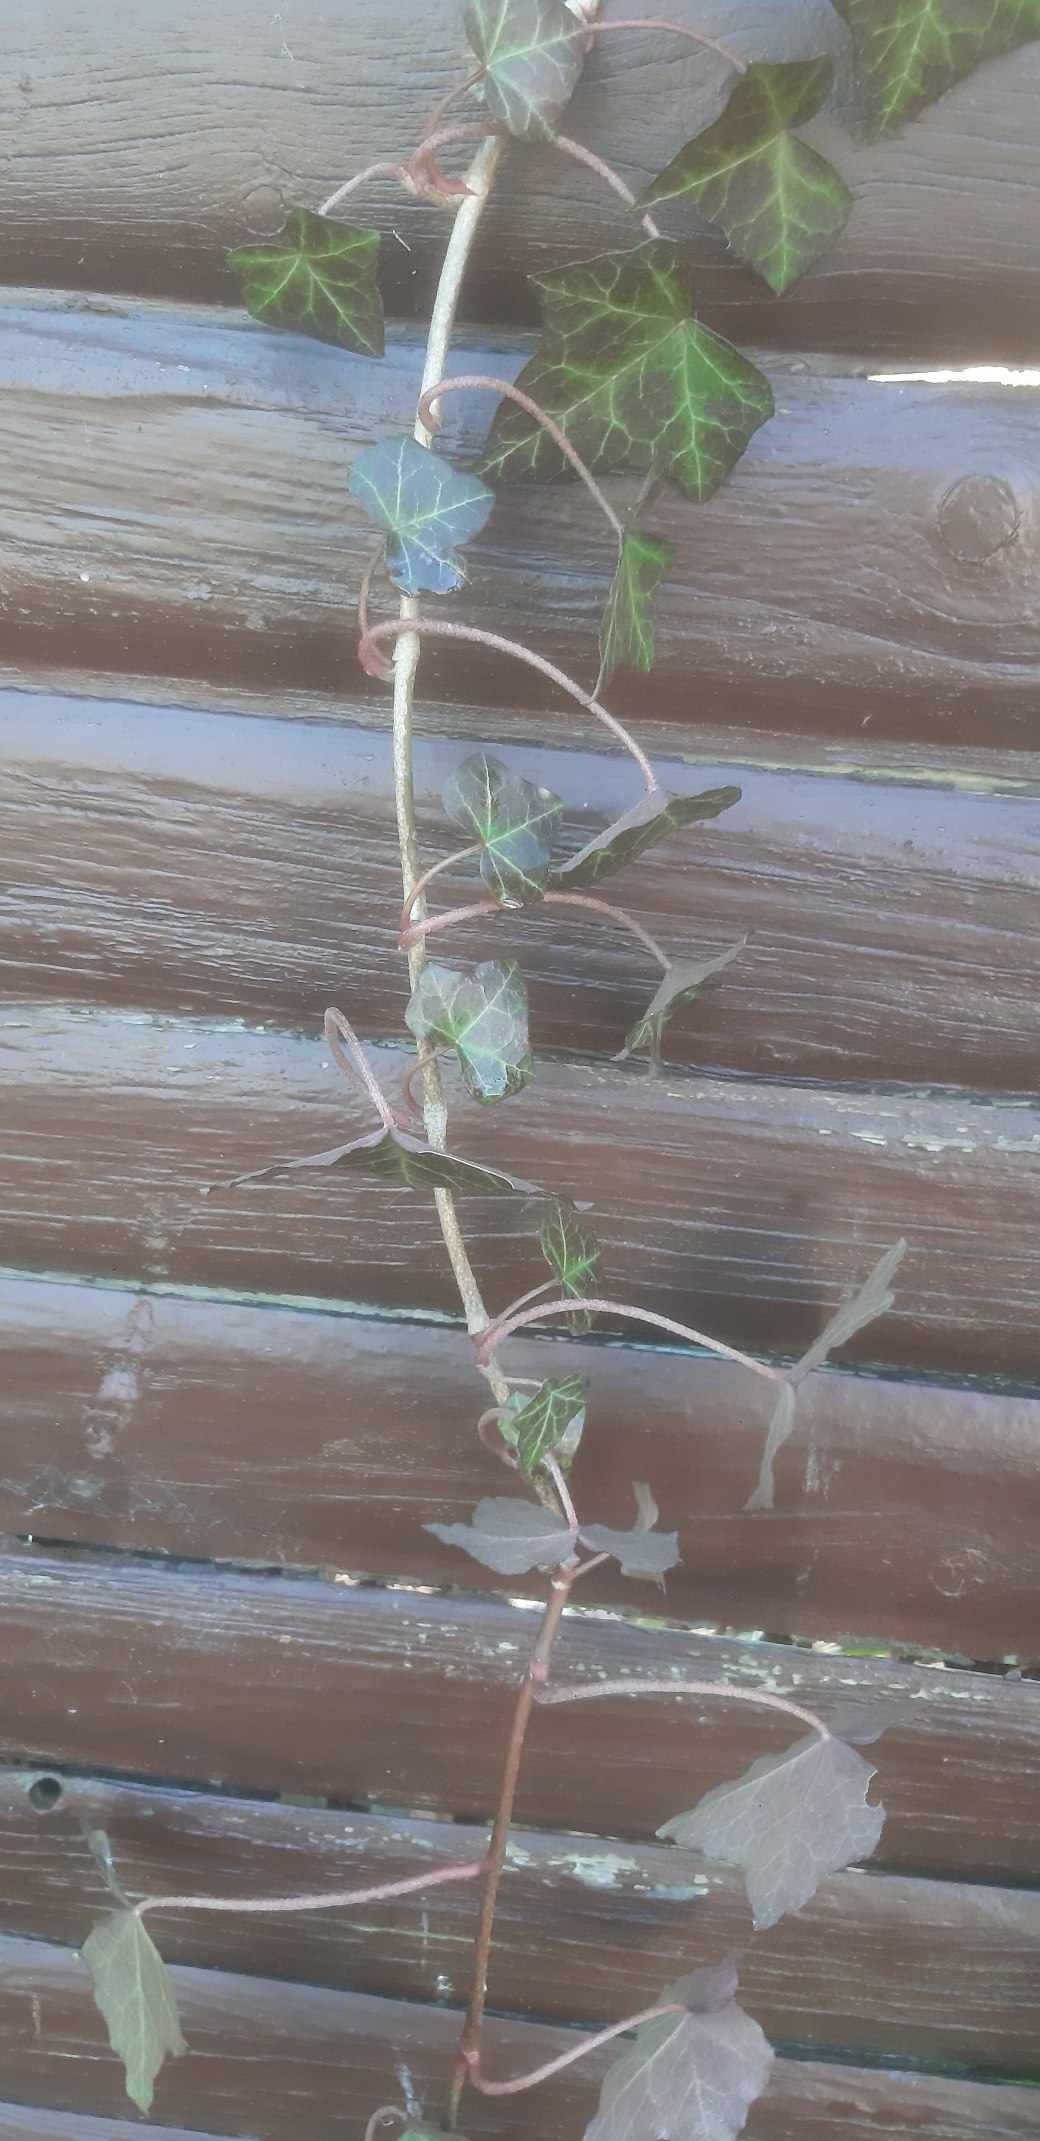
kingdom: Plantae
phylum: Tracheophyta
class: Magnoliopsida
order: Apiales
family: Araliaceae
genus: Hedera
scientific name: Hedera helix
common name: Vedbend
